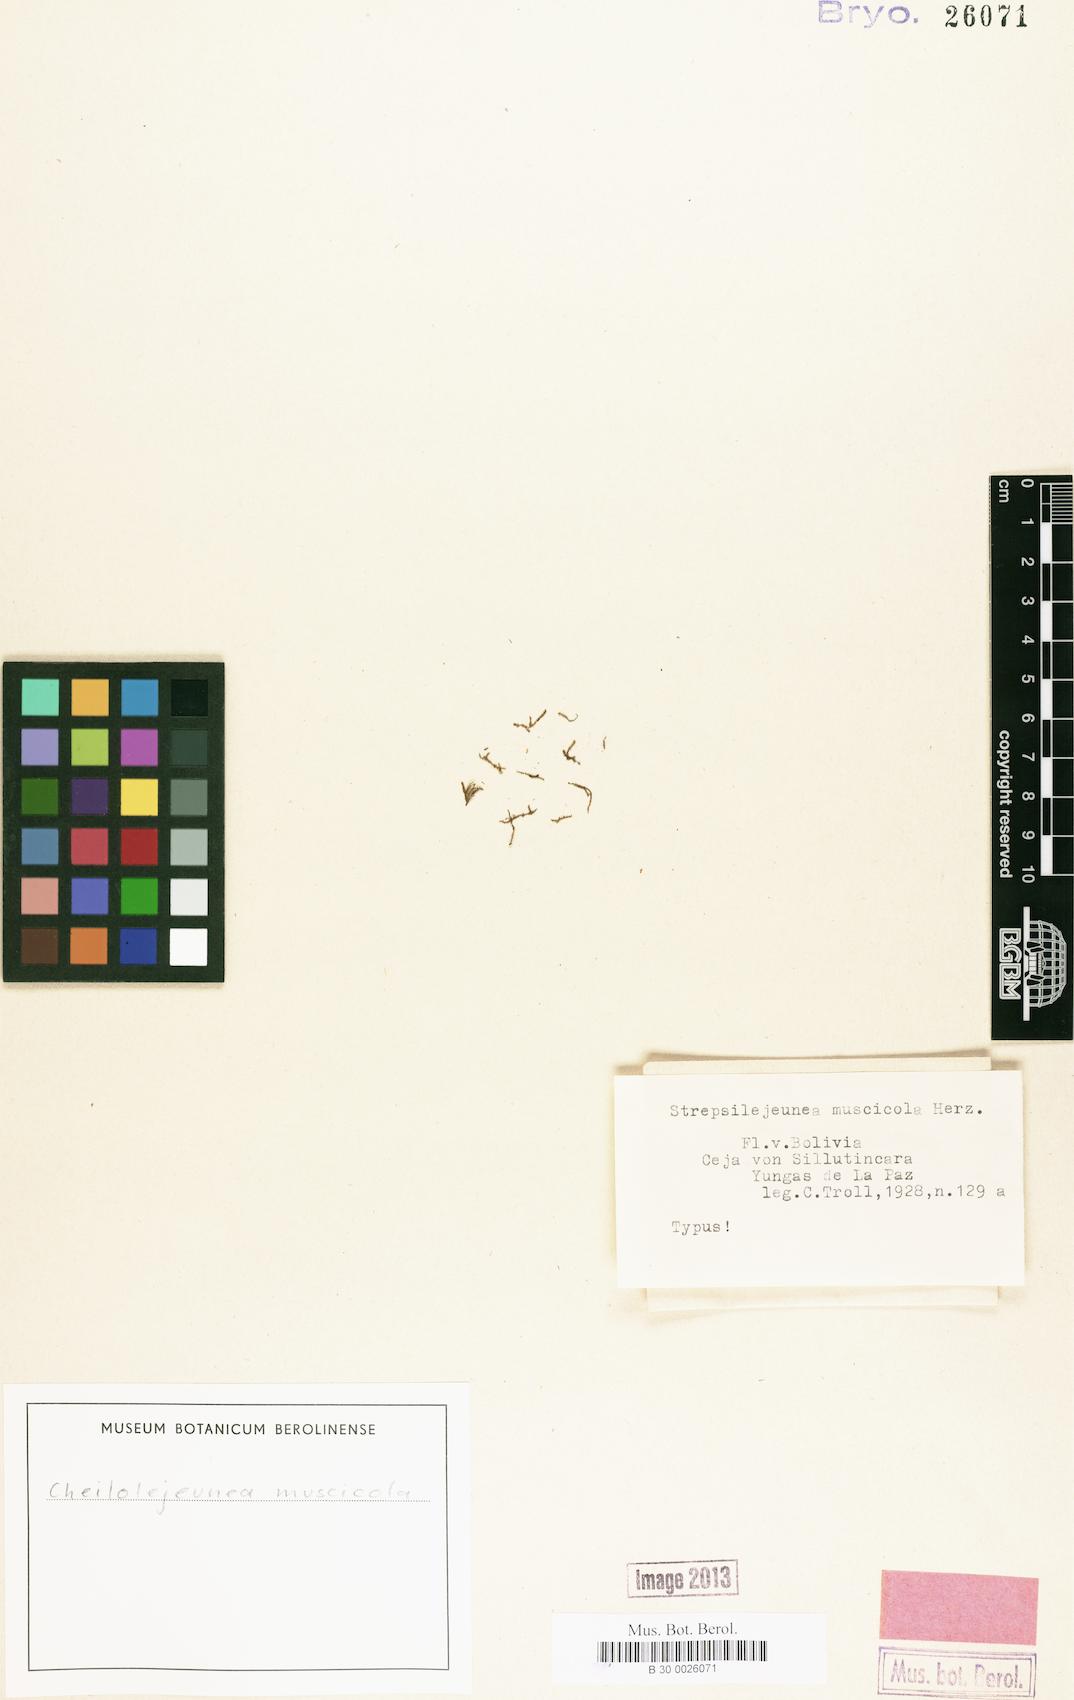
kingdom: Plantae
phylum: Marchantiophyta
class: Jungermanniopsida
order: Porellales
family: Lejeuneaceae
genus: Lejeunea
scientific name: Lejeunea rara
